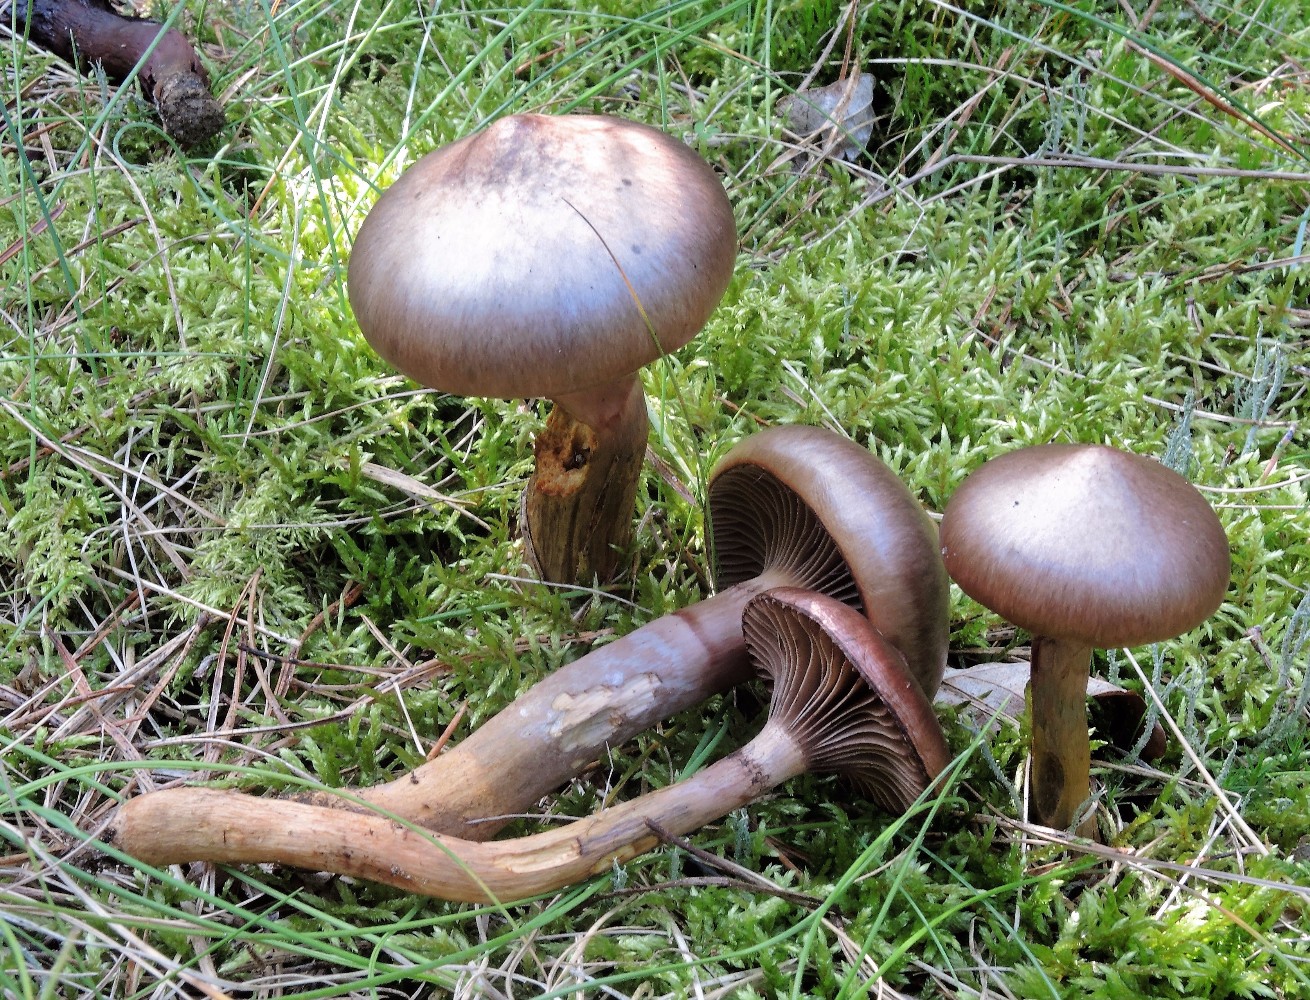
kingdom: Fungi
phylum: Basidiomycota
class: Agaricomycetes
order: Boletales
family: Gomphidiaceae
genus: Chroogomphus
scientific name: Chroogomphus rutilus
